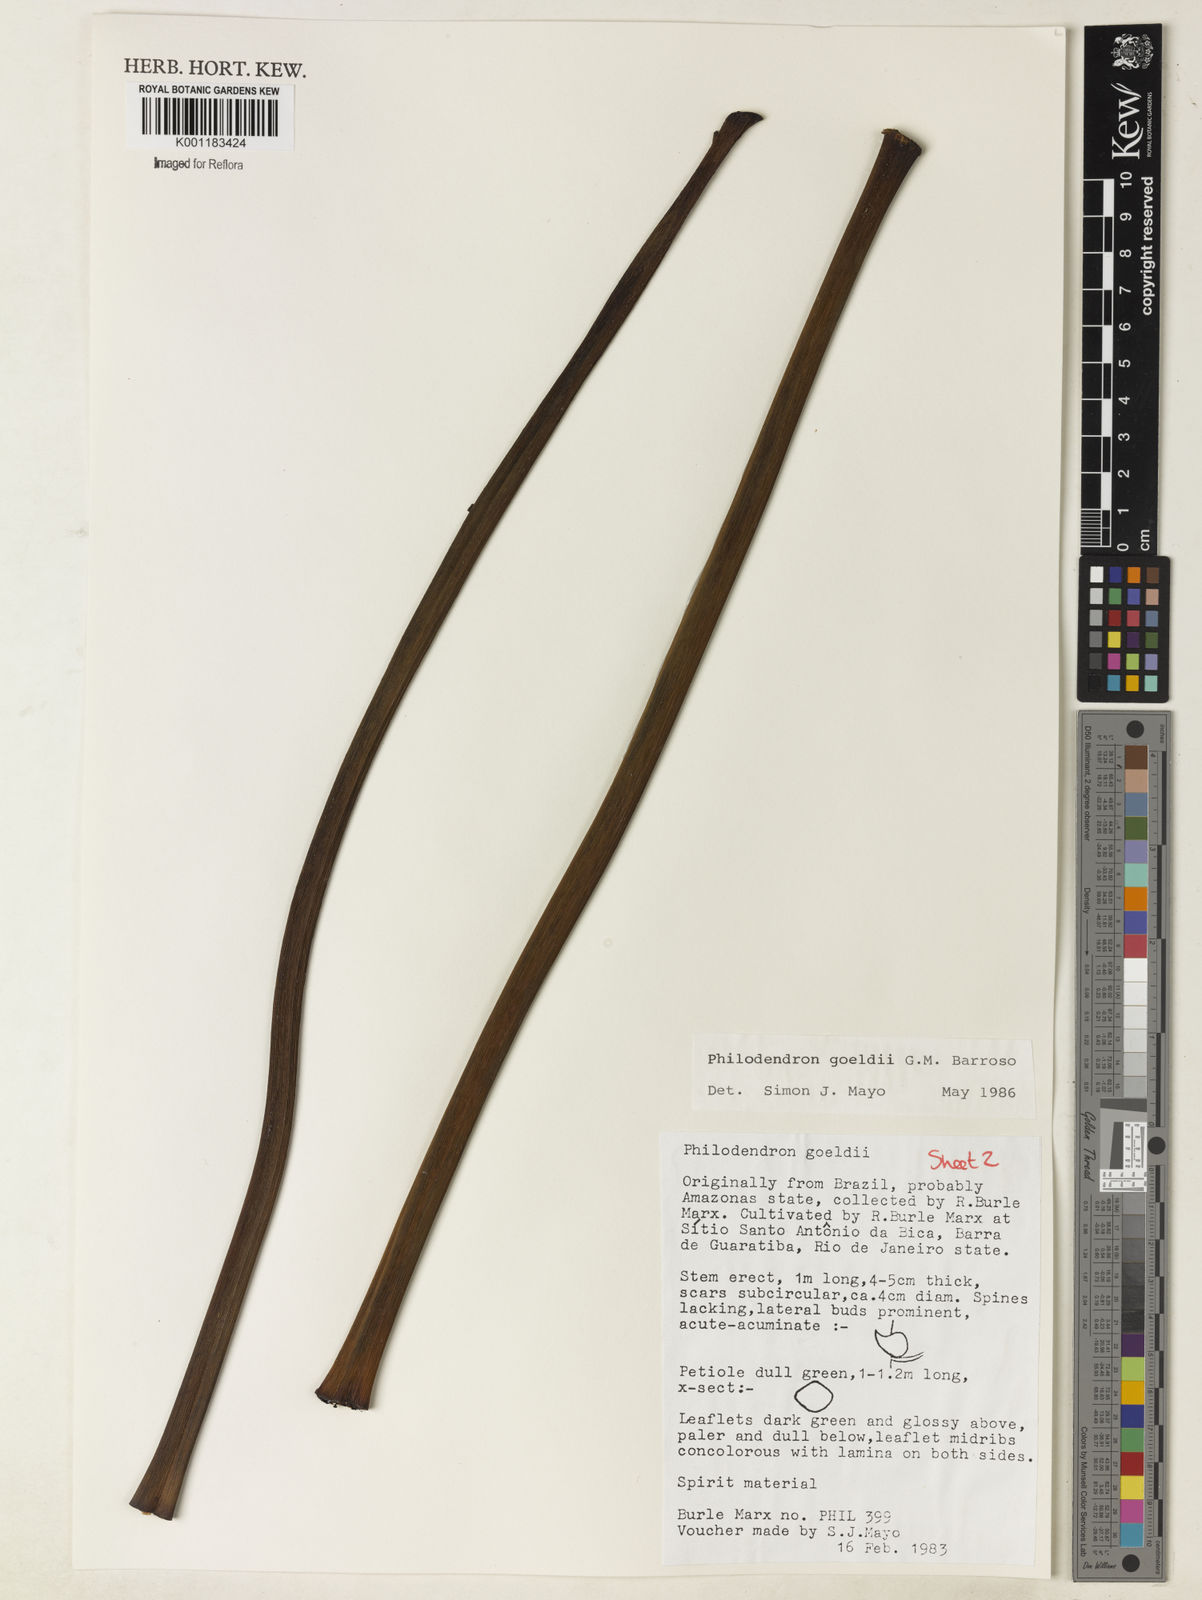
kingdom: Plantae
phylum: Tracheophyta
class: Liliopsida
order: Alismatales
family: Araceae
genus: Thaumatophyllum
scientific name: Thaumatophyllum spruceanum
